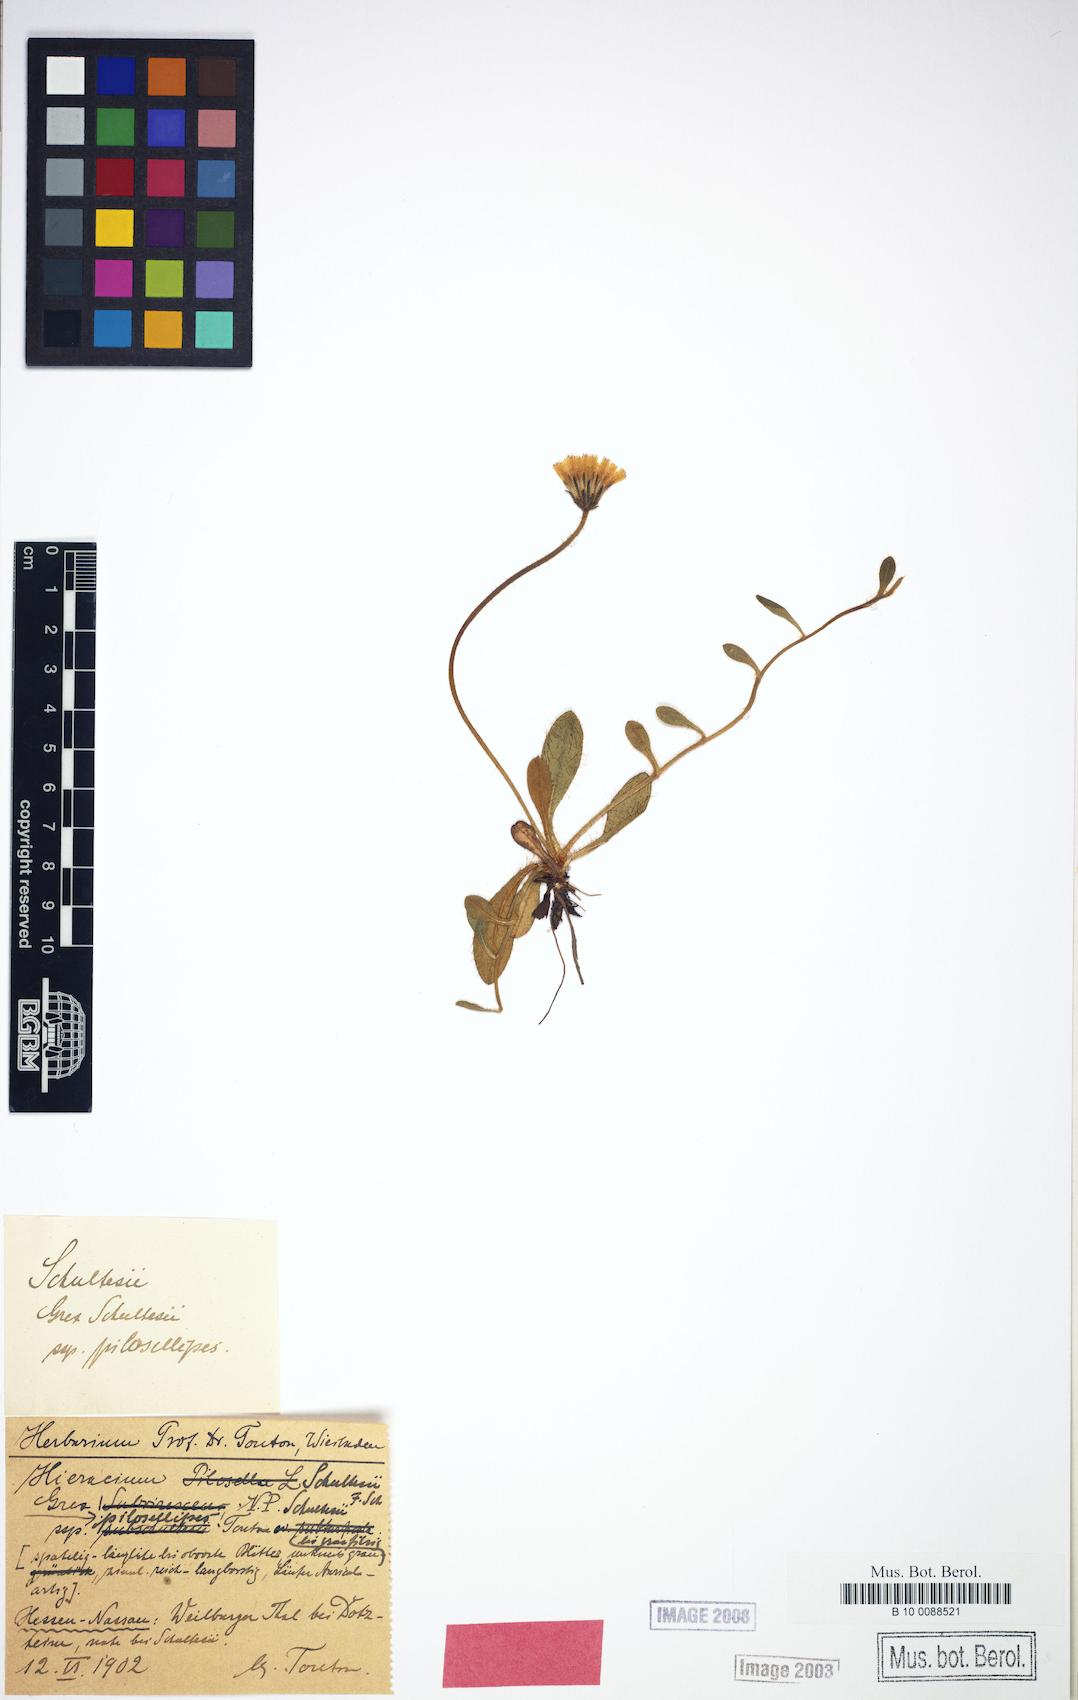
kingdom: Plantae
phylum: Tracheophyta
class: Magnoliopsida
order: Asterales
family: Asteraceae
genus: Pilosella
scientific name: Pilosella schultesii
